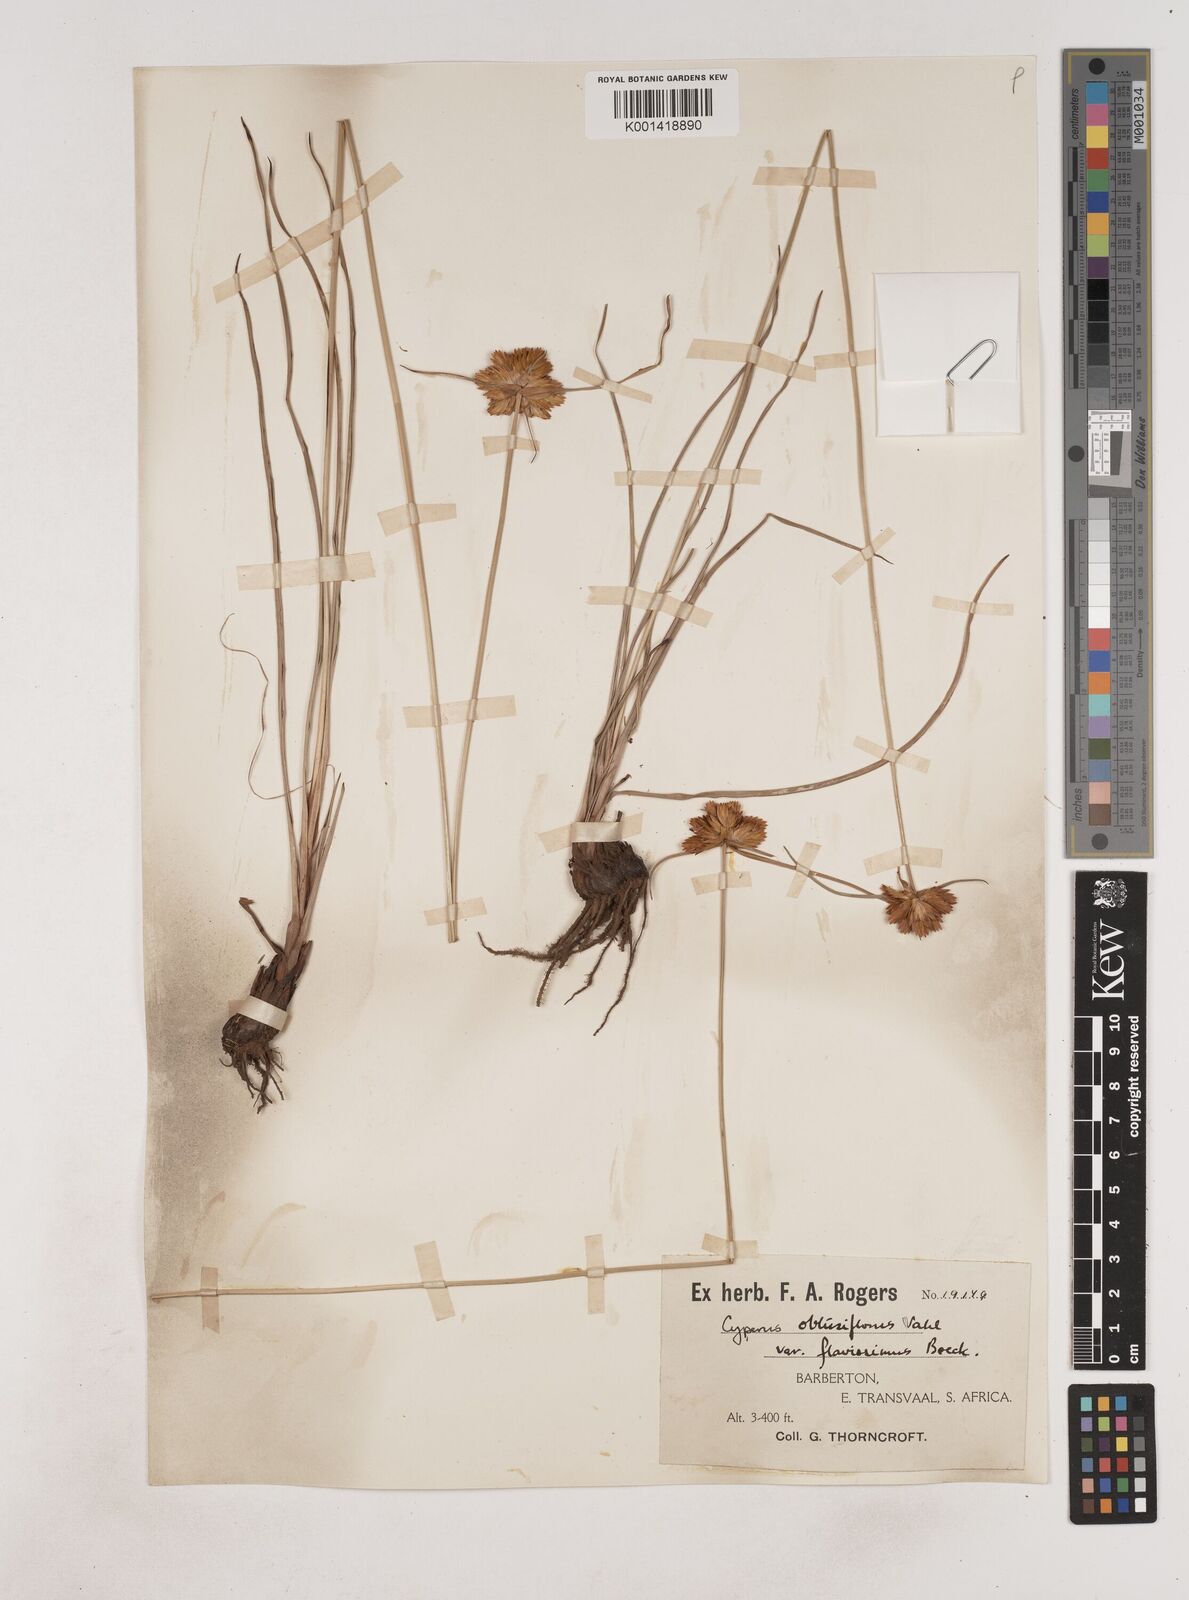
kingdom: Plantae
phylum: Tracheophyta
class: Liliopsida
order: Poales
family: Cyperaceae
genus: Cyperus
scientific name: Cyperus sphaerocephalus
